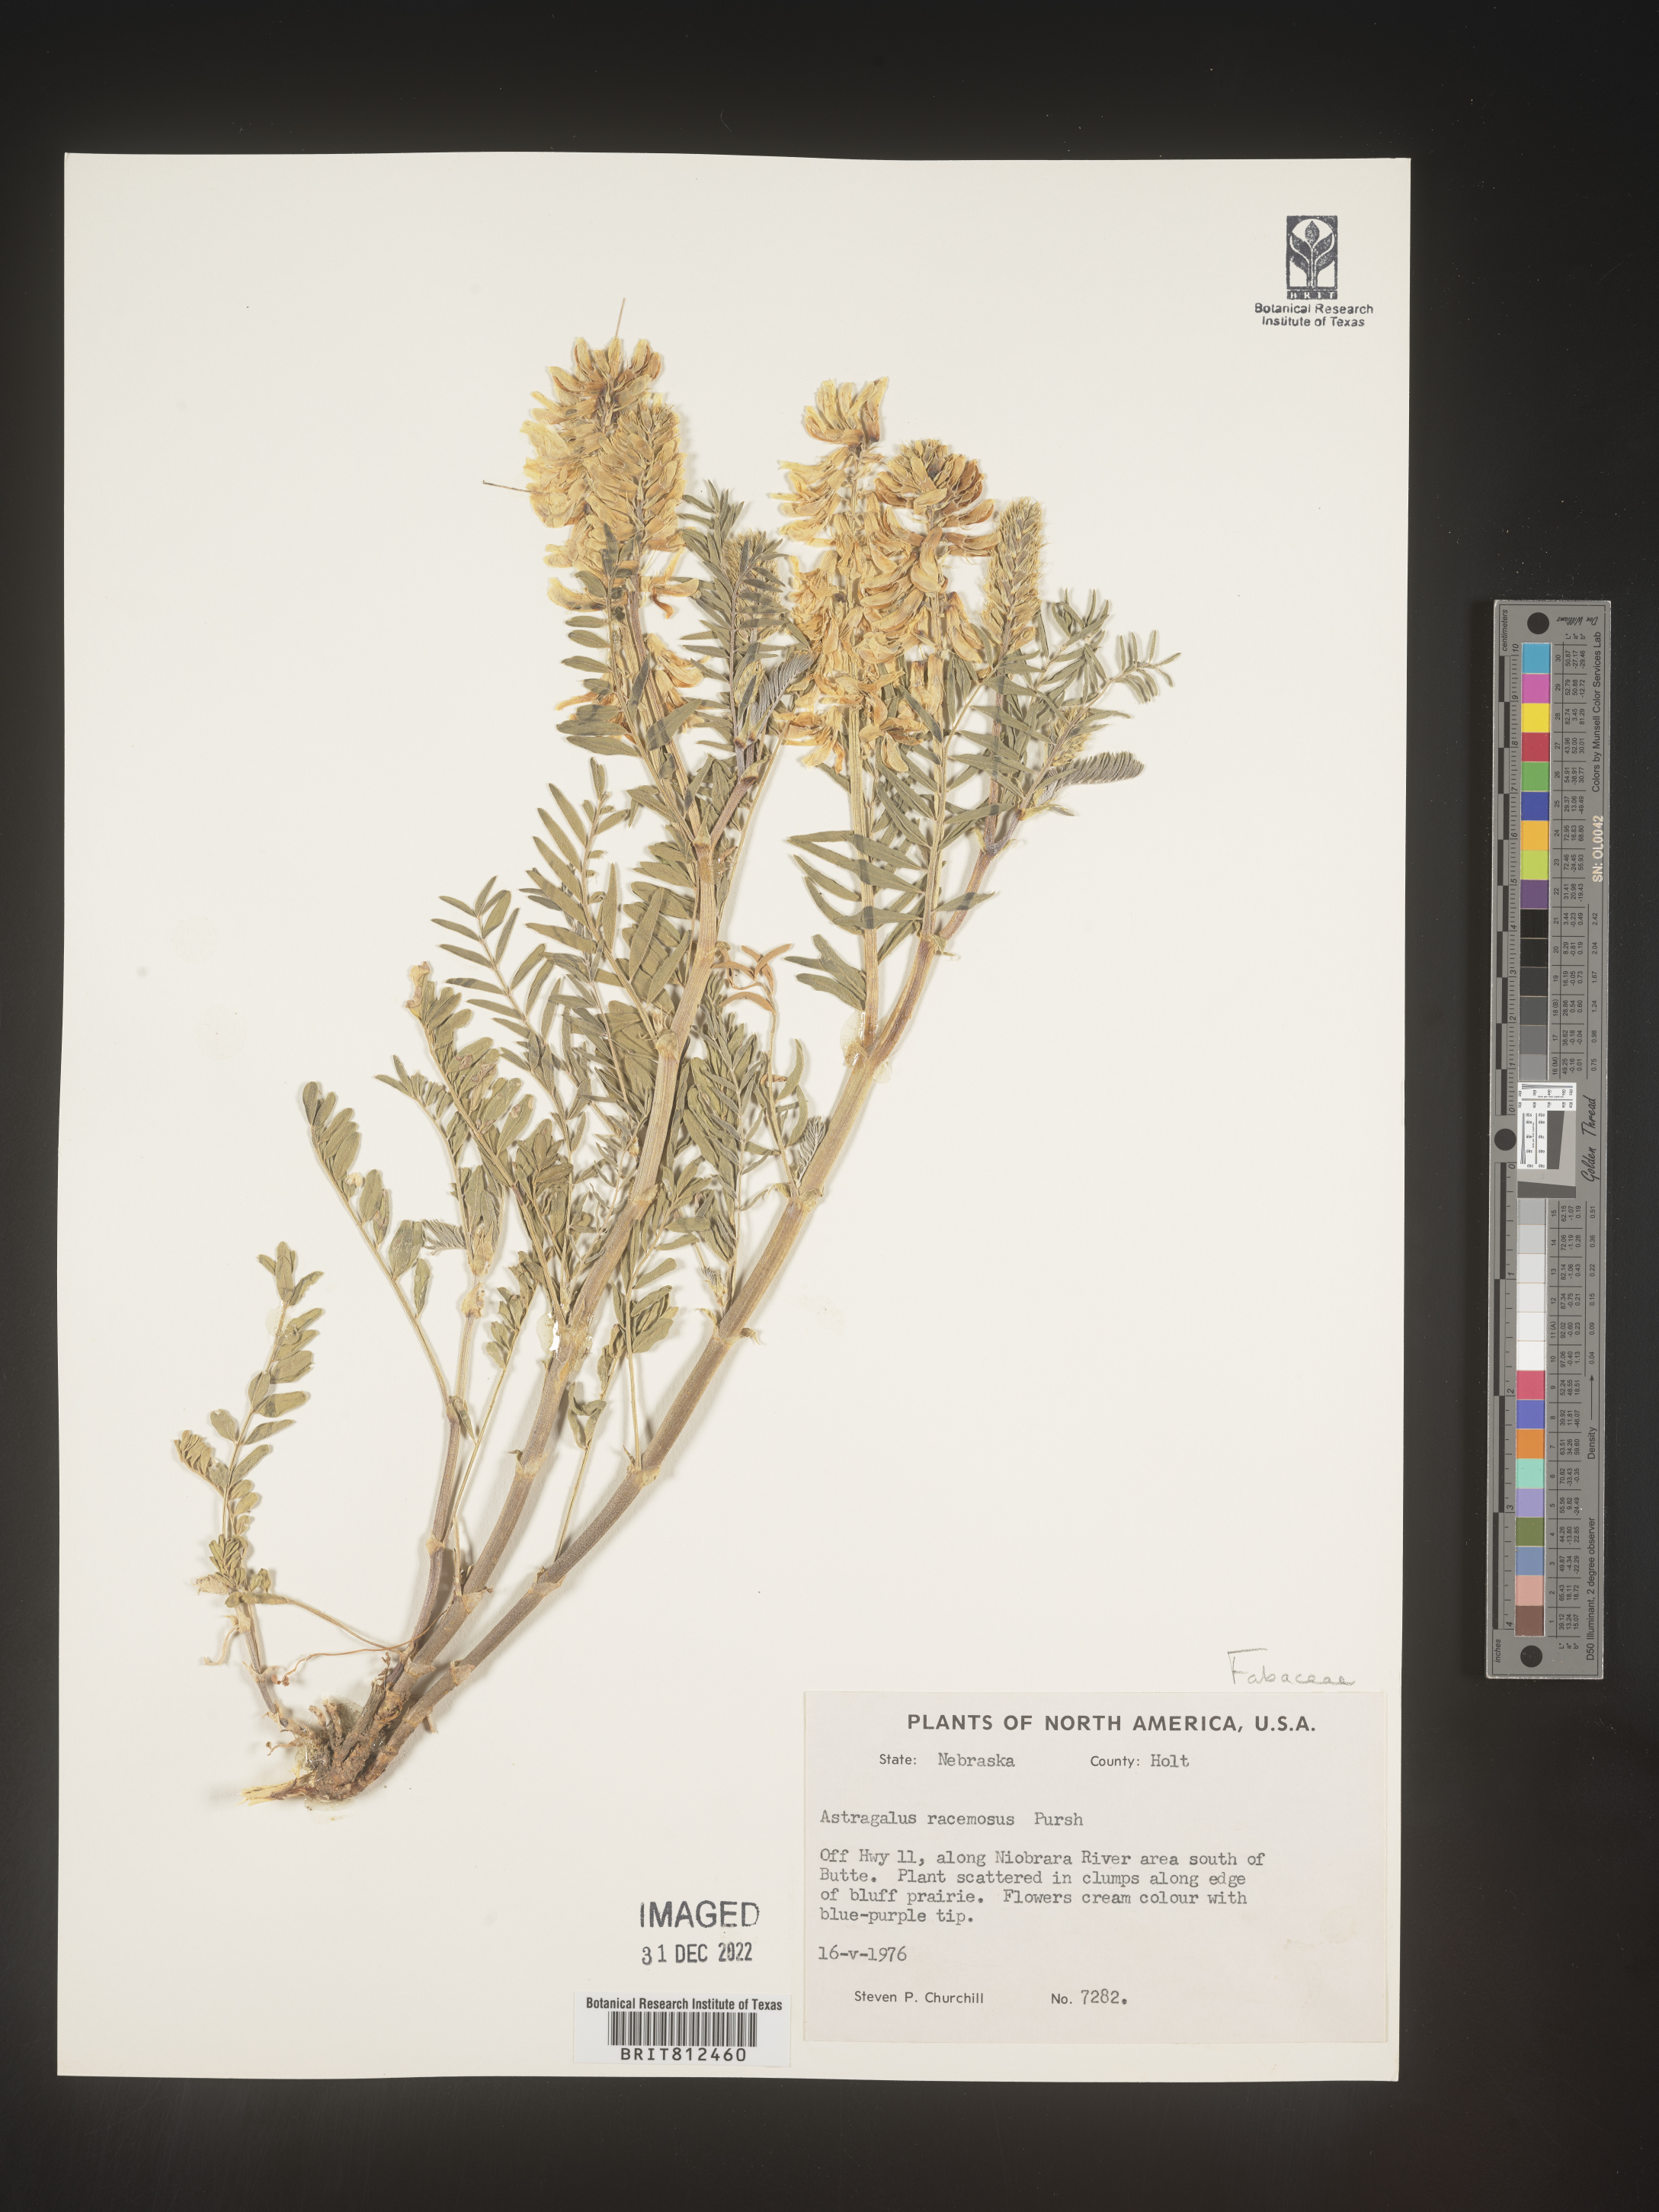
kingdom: Plantae
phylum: Tracheophyta
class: Magnoliopsida
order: Fabales
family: Fabaceae
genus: Astragalus
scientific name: Astragalus racemosus
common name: Alkali milk-vetch
